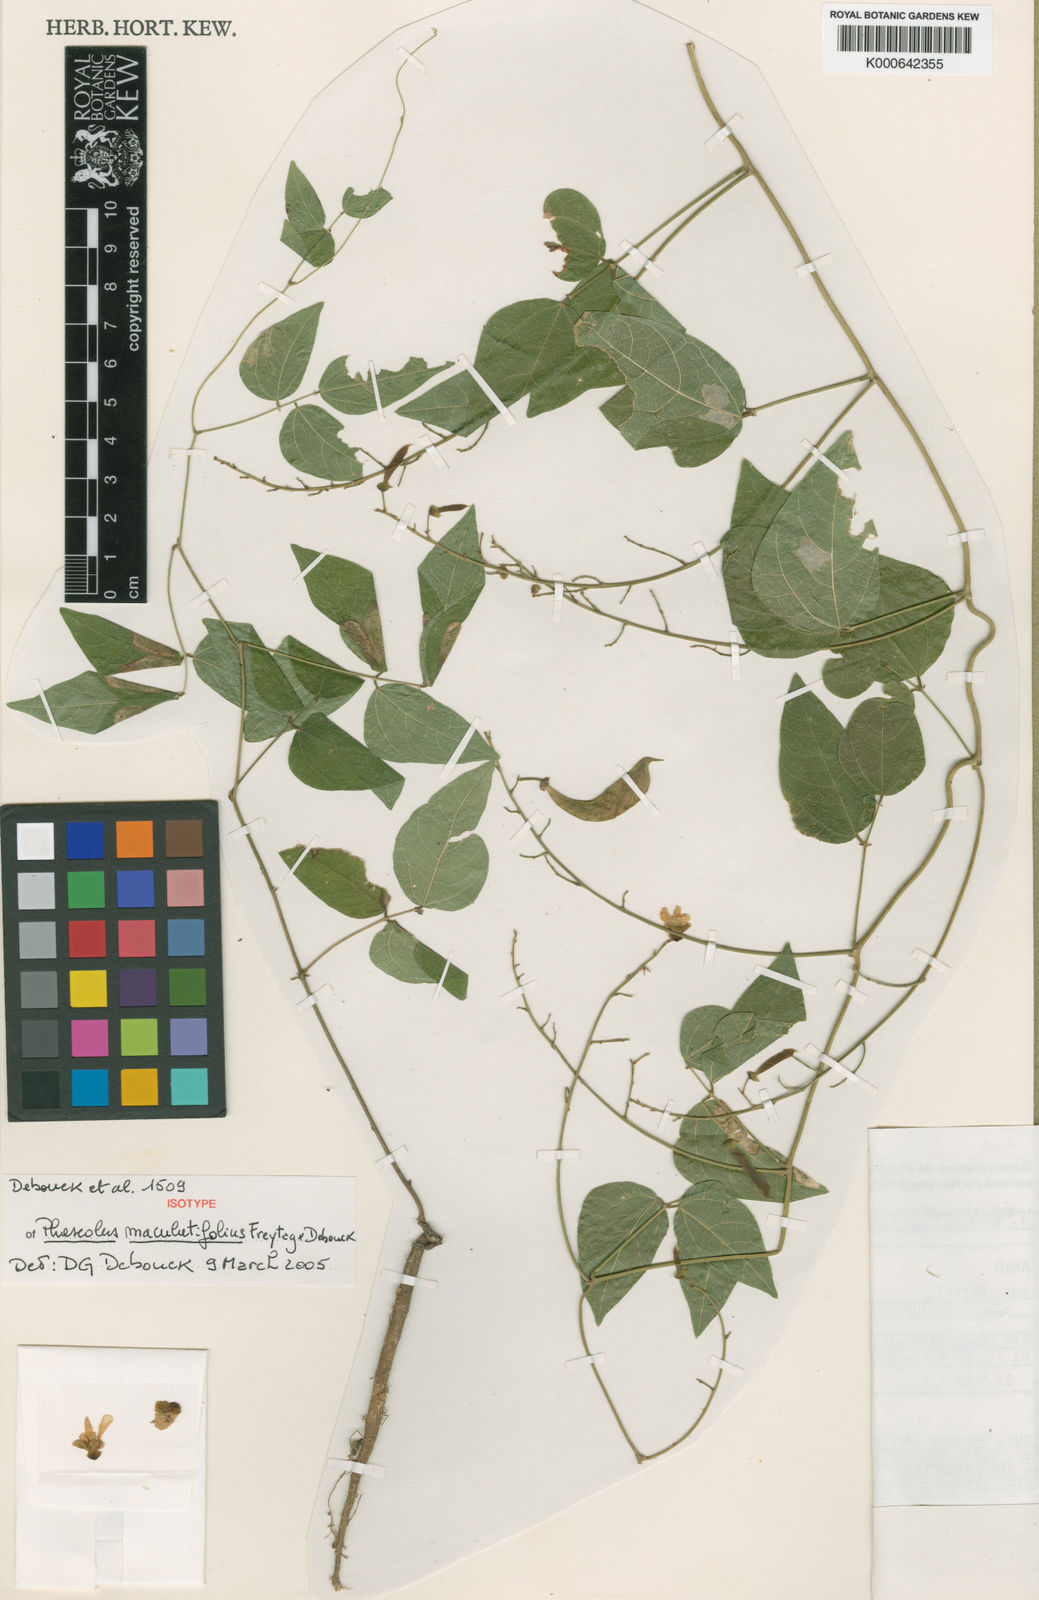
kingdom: Plantae
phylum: Tracheophyta
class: Magnoliopsida
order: Fabales
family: Fabaceae
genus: Phaseolus
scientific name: Phaseolus maculatifolius
